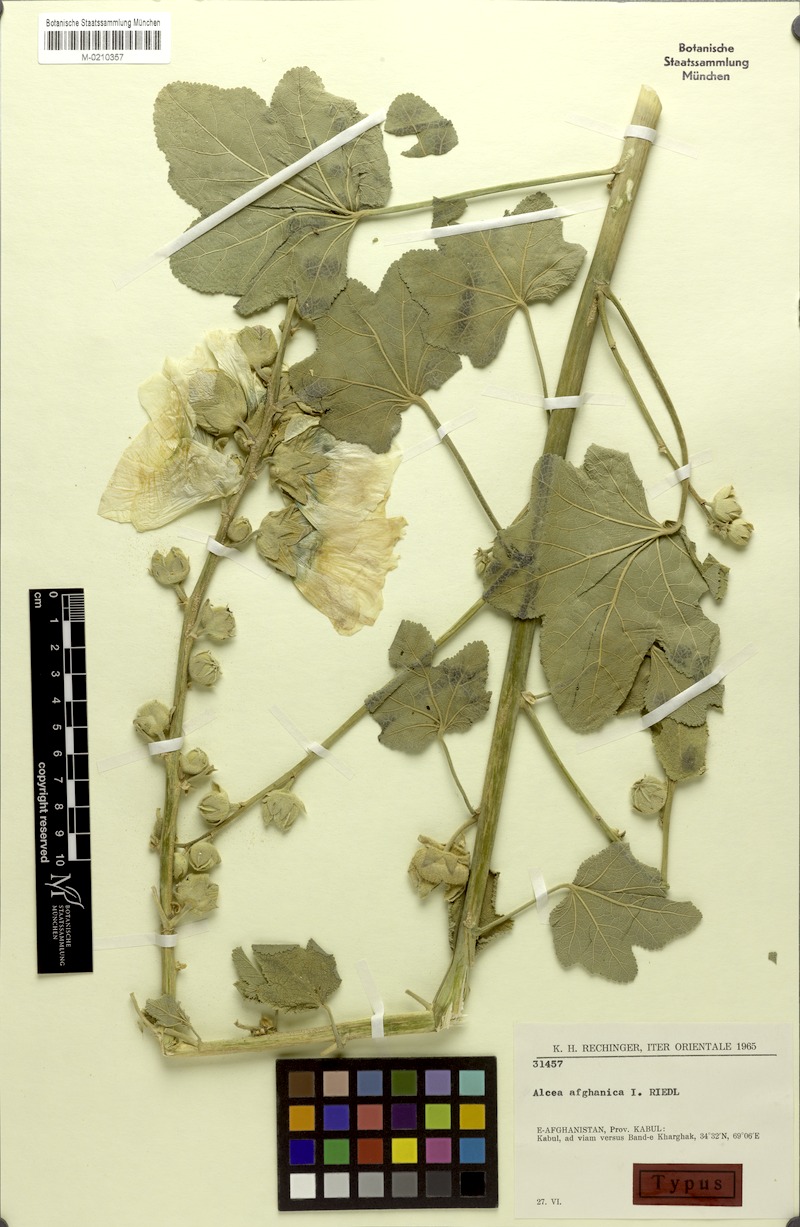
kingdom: Plantae
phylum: Tracheophyta
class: Magnoliopsida
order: Malvales
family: Malvaceae
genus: Alcea
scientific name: Alcea afghanica
